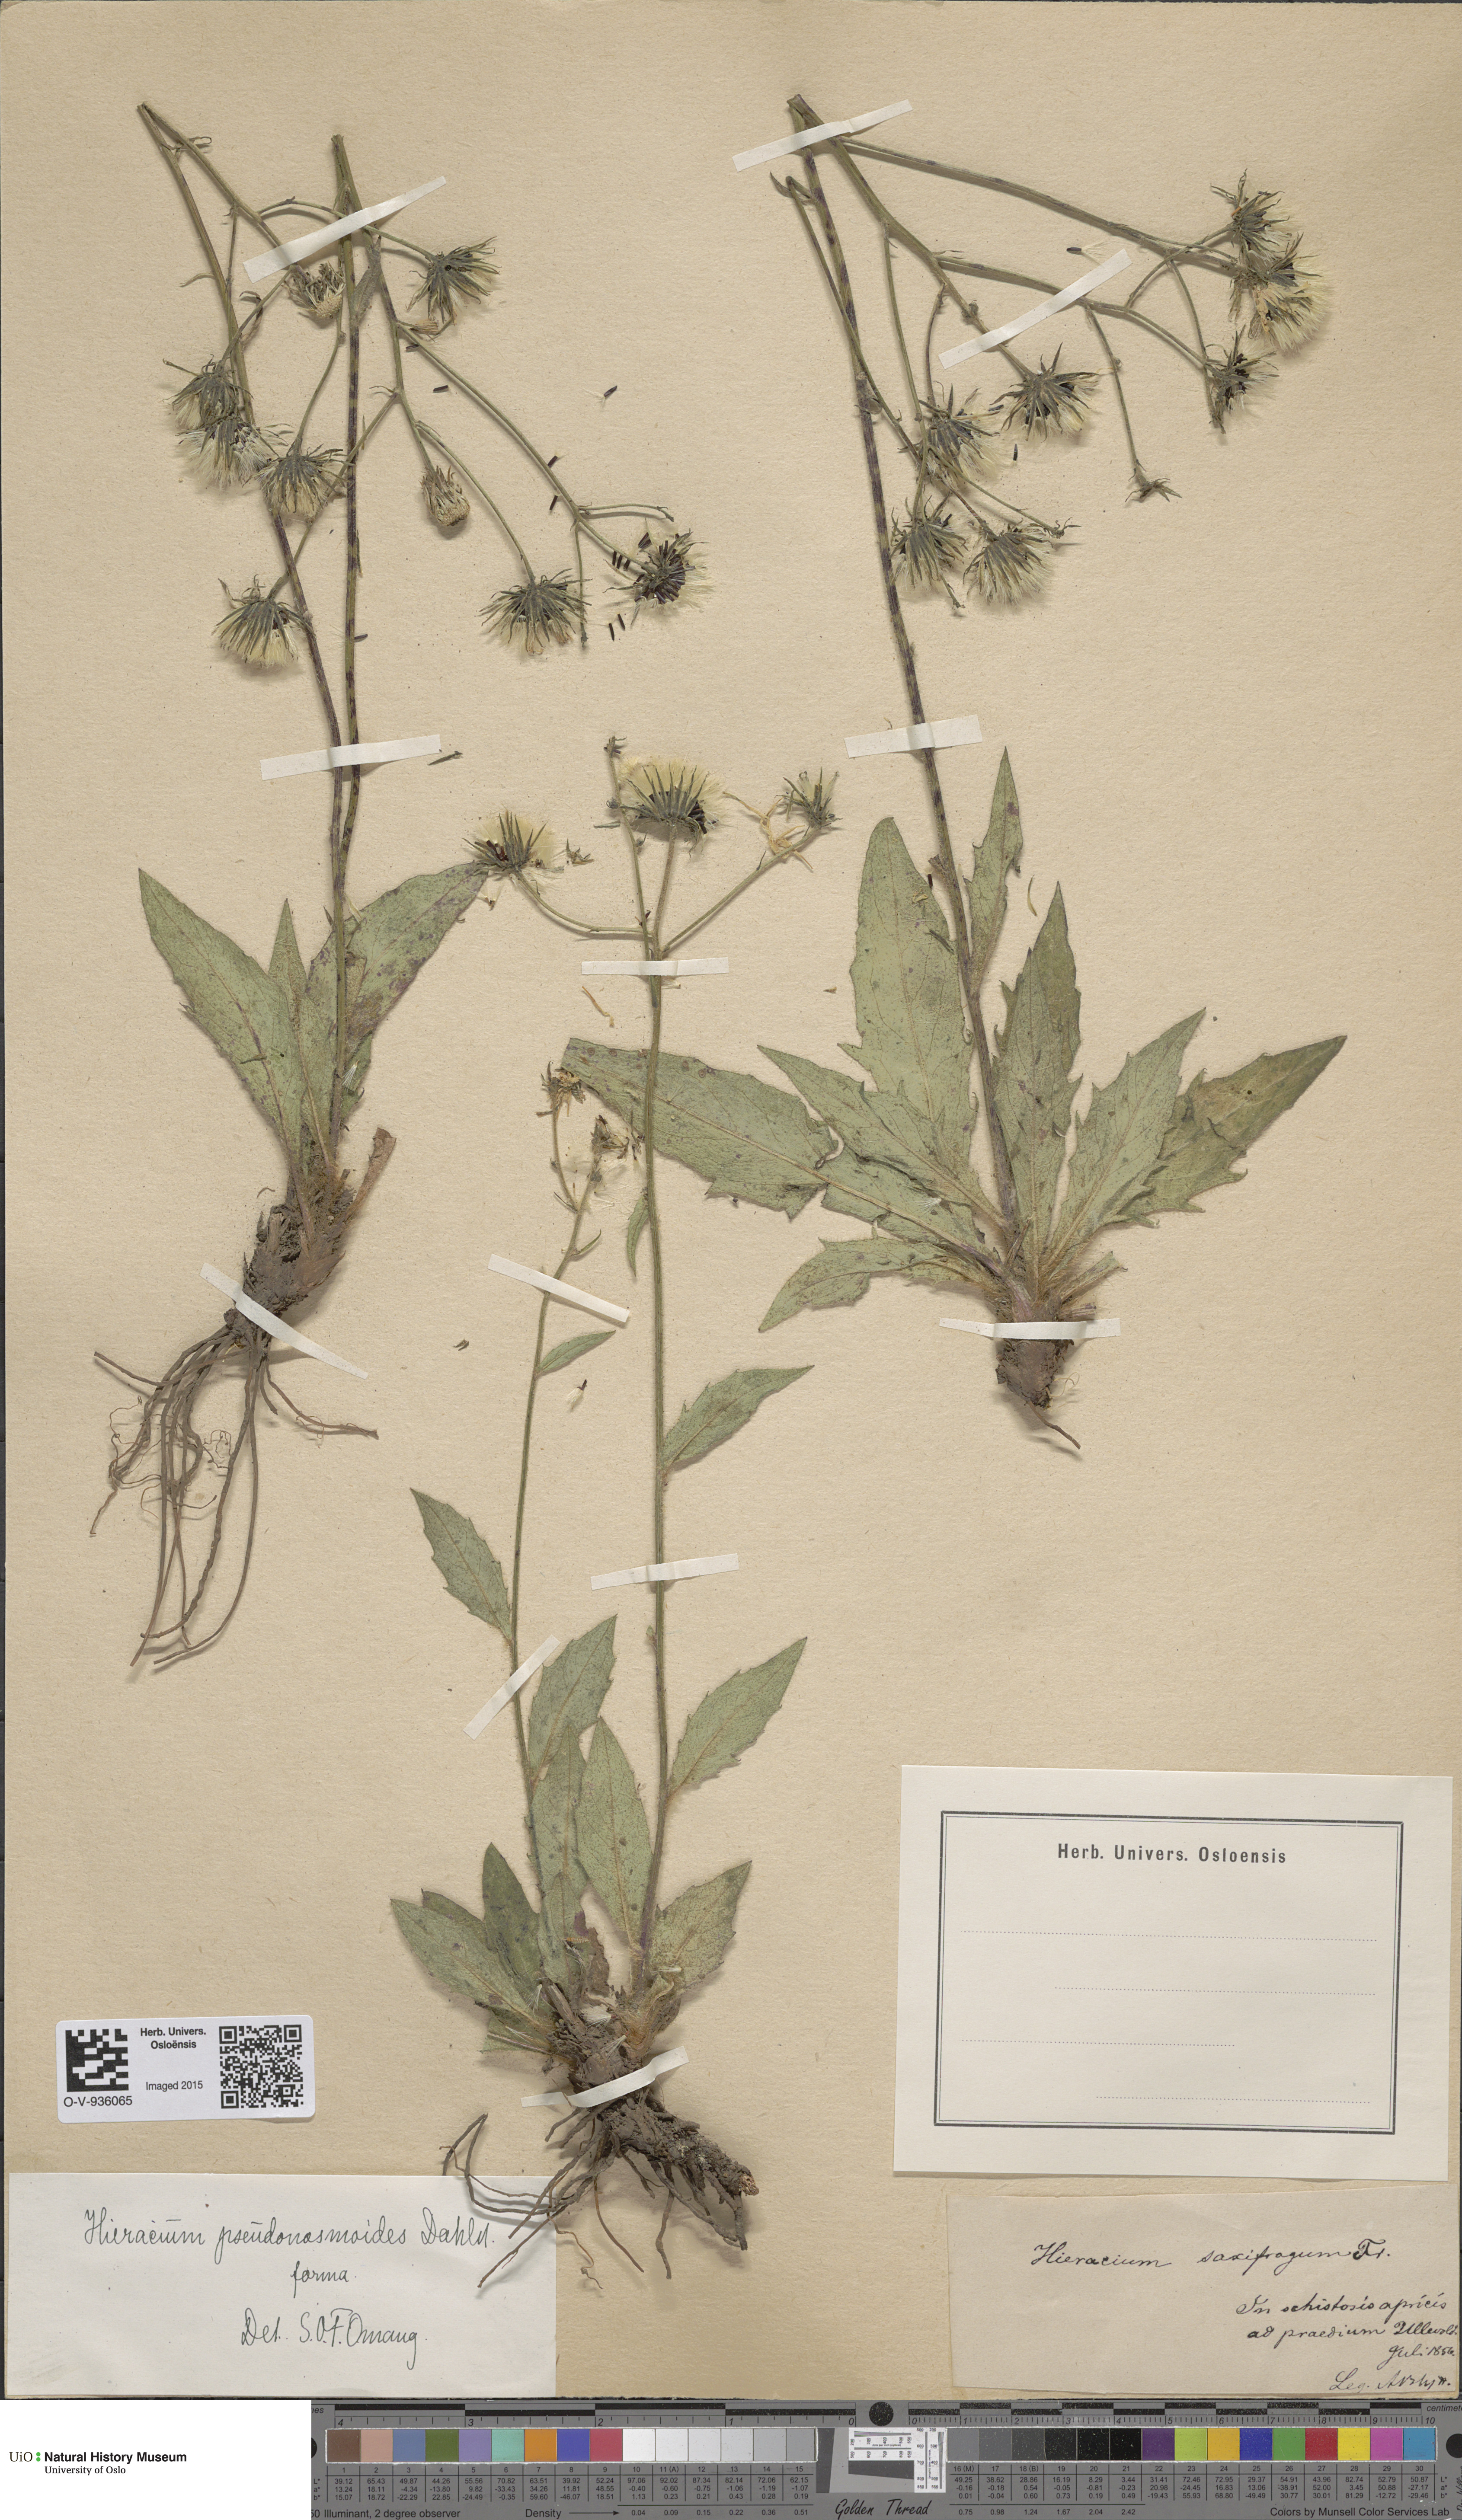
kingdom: Plantae
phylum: Tracheophyta
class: Magnoliopsida
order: Asterales
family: Asteraceae
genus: Hieracium
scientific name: Hieracium saxifragum
